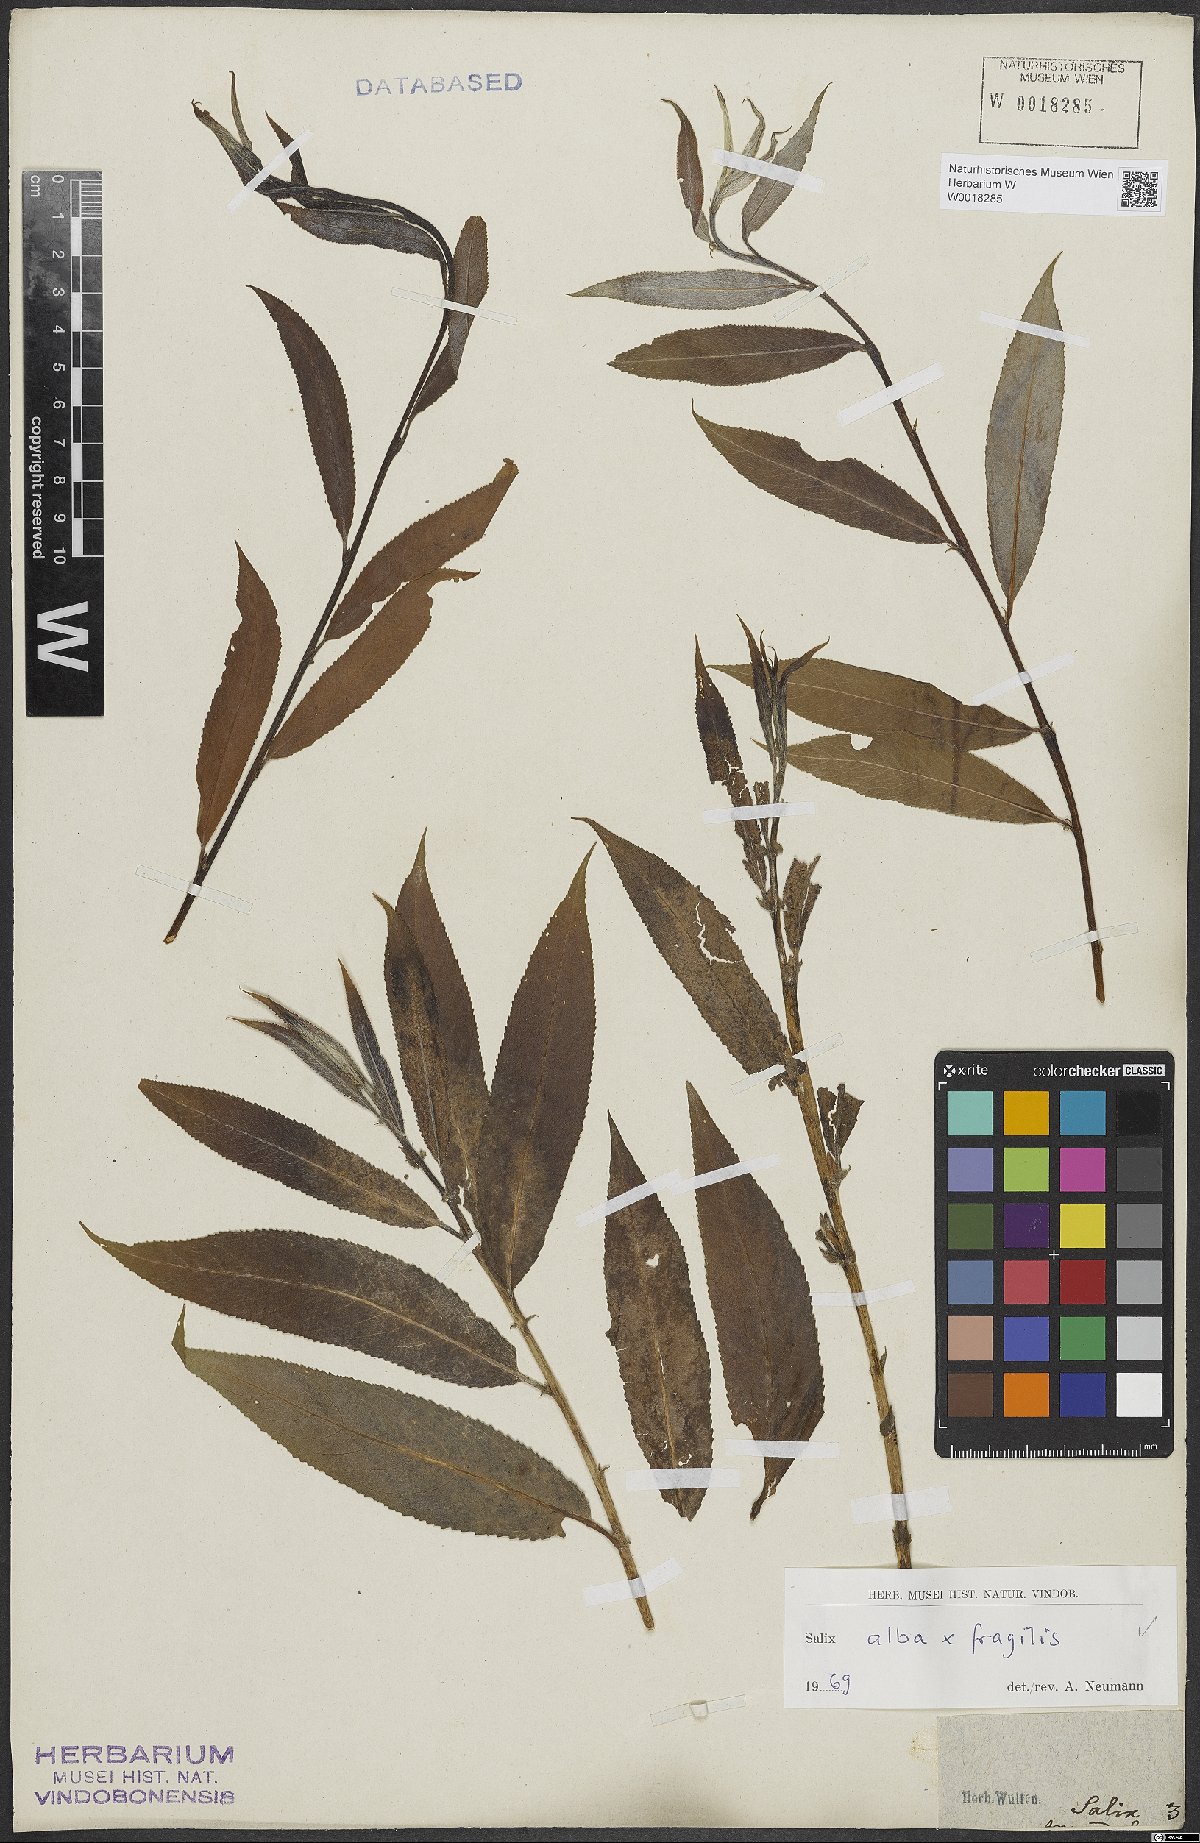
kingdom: Plantae
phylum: Tracheophyta
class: Magnoliopsida
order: Malpighiales
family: Salicaceae
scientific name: Salicaceae
